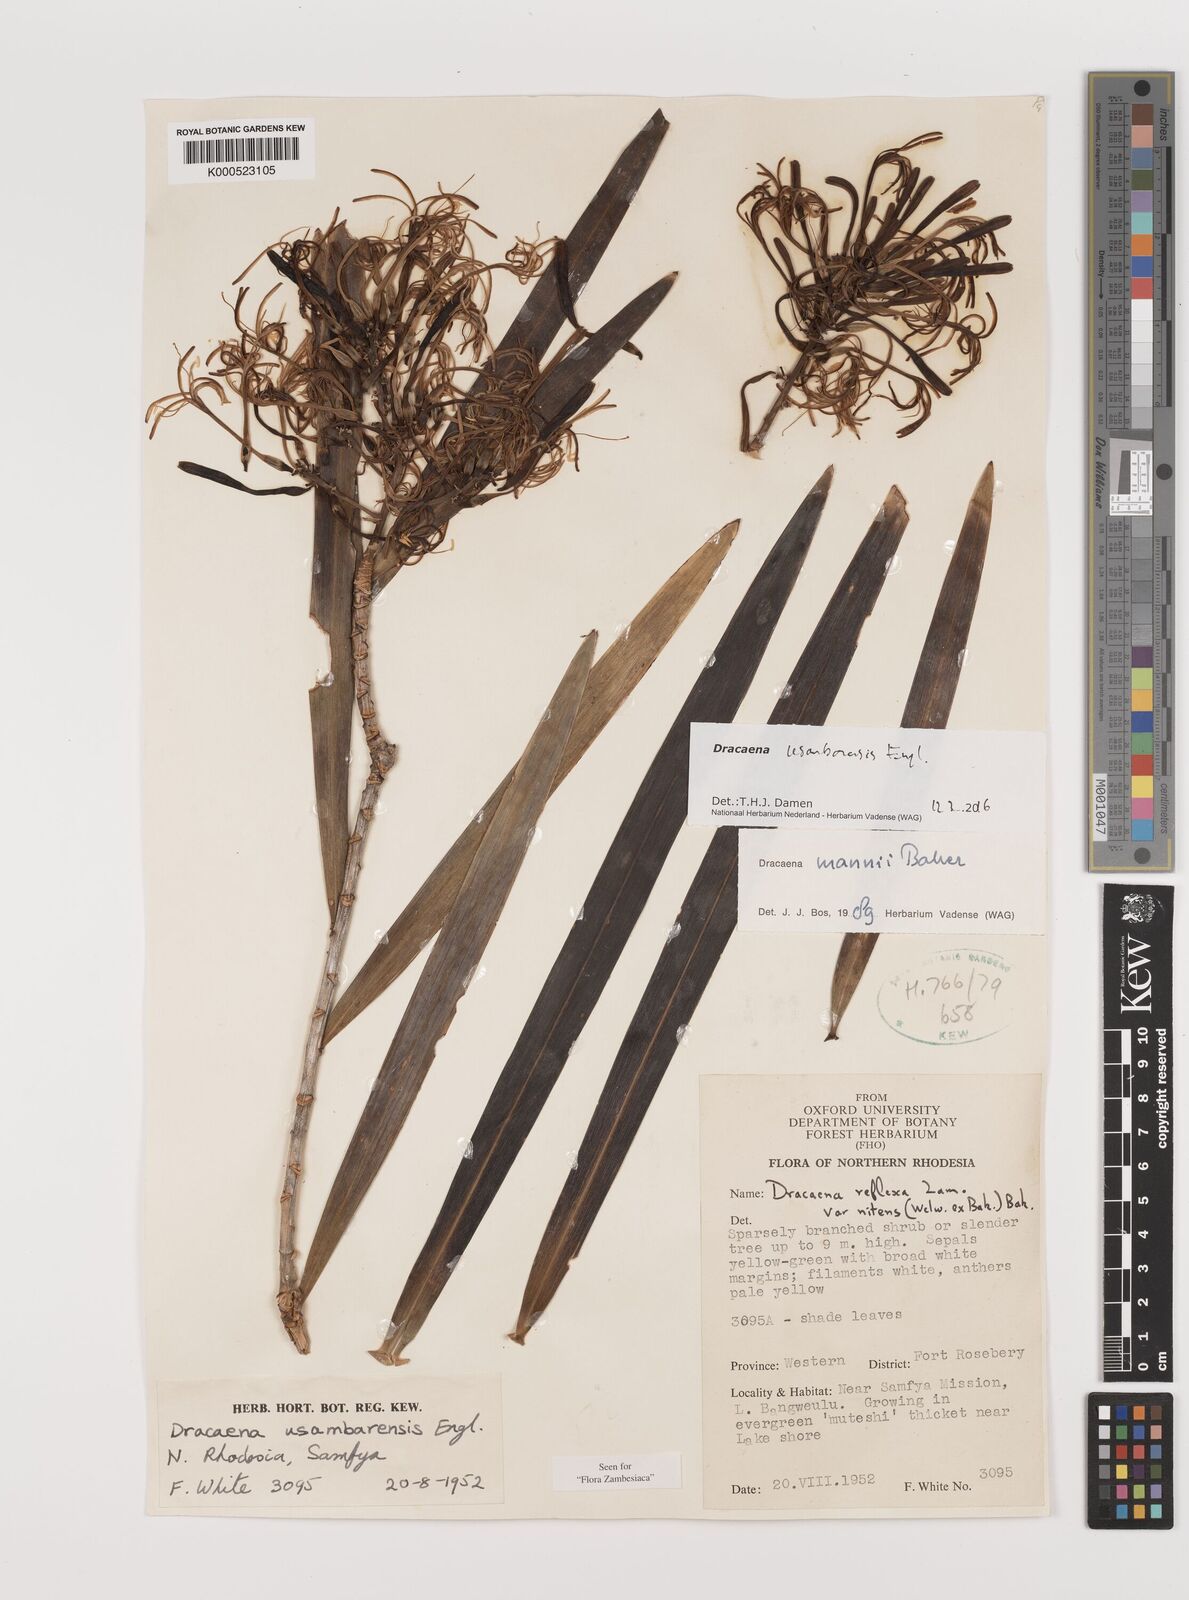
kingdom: Plantae
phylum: Tracheophyta
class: Liliopsida
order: Asparagales
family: Asparagaceae
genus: Dracaena
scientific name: Dracaena usambarensis
